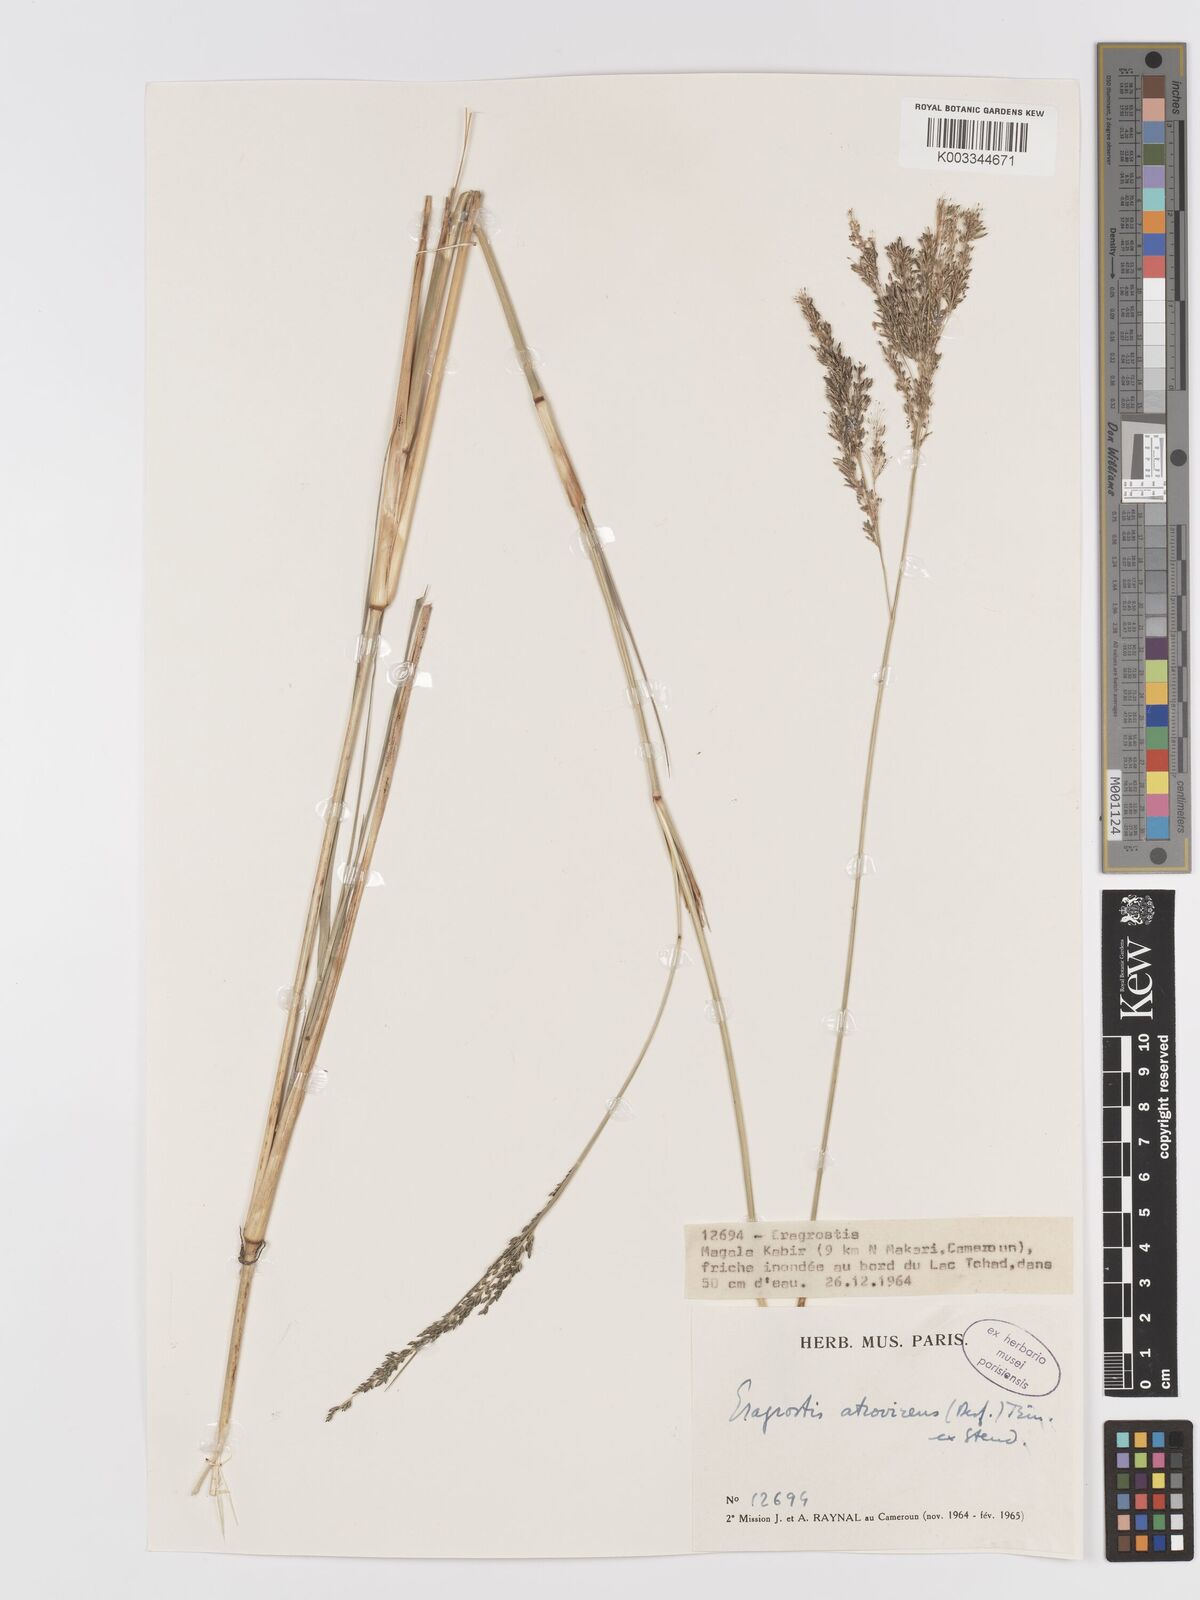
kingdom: Plantae
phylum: Tracheophyta
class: Liliopsida
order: Poales
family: Poaceae
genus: Eragrostis
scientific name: Eragrostis atrovirens
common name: Thalia lovegrass
